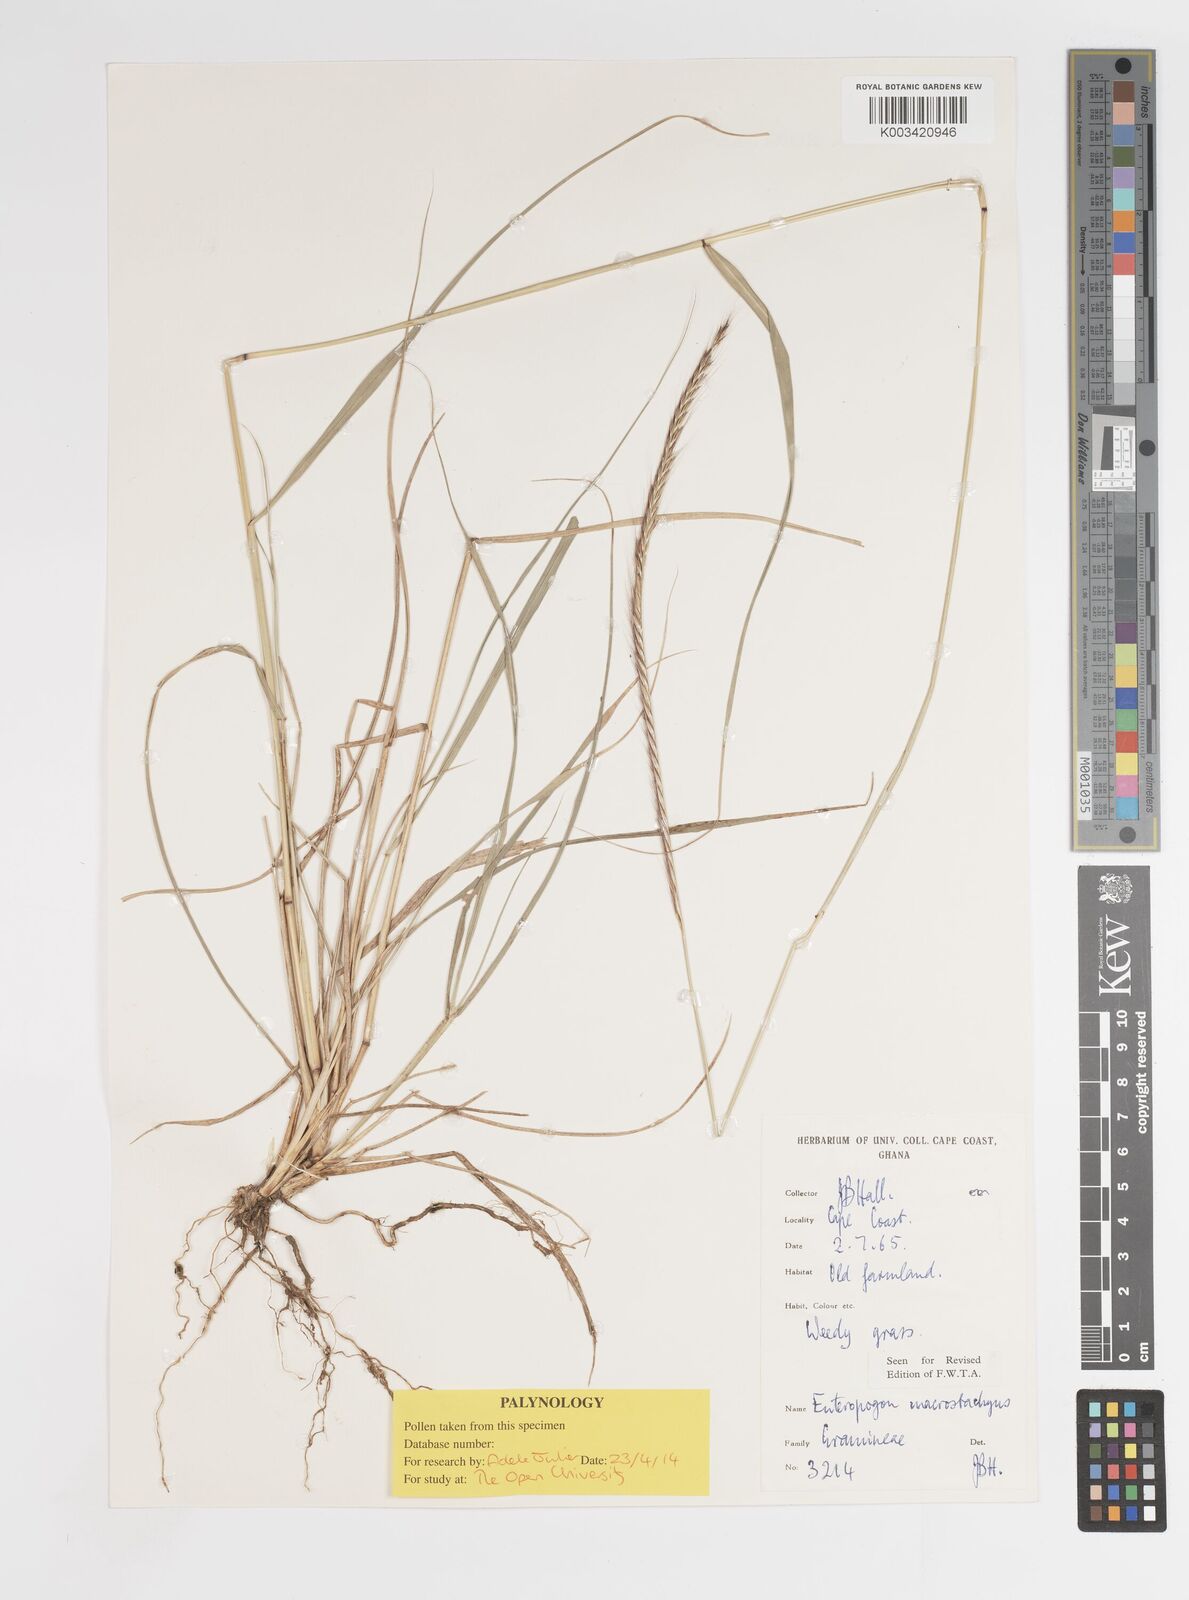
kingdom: Plantae
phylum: Tracheophyta
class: Liliopsida
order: Poales
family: Poaceae
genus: Enteropogon
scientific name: Enteropogon macrostachyus
